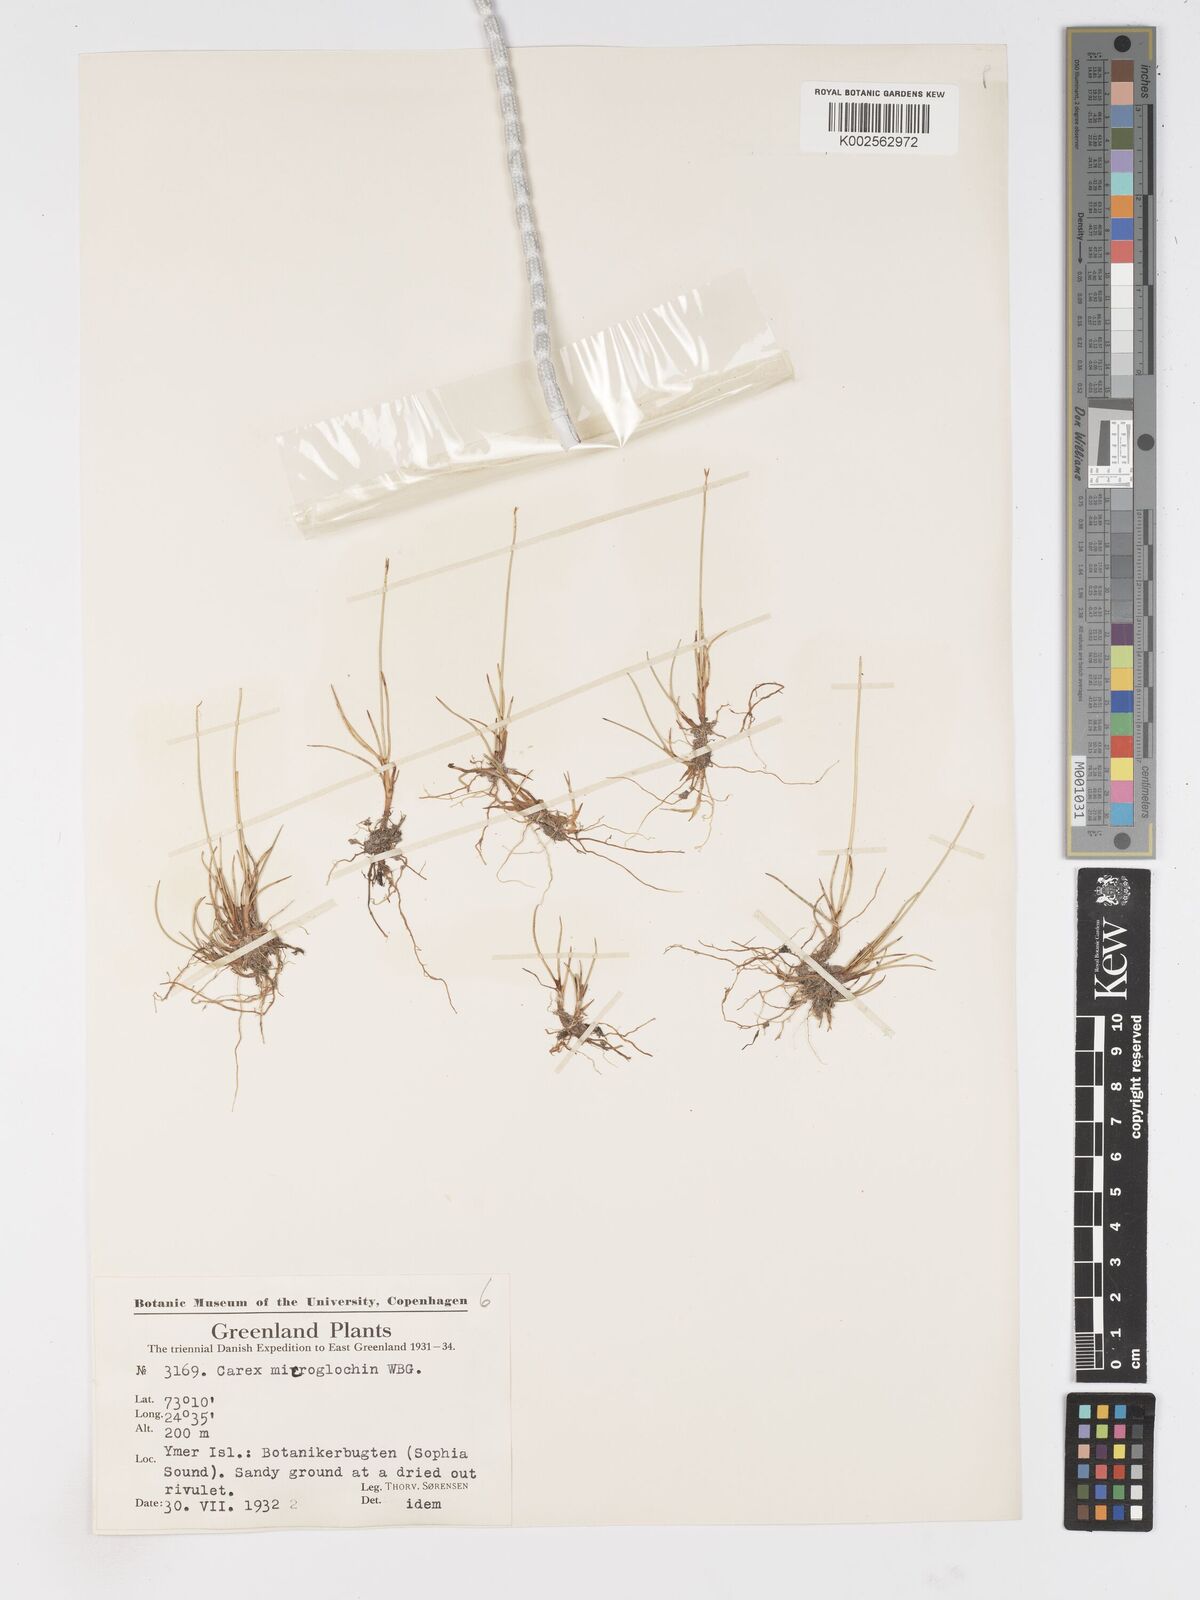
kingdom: Plantae
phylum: Tracheophyta
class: Liliopsida
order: Poales
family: Cyperaceae
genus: Carex
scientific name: Carex microglochin
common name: Bristle sedge
